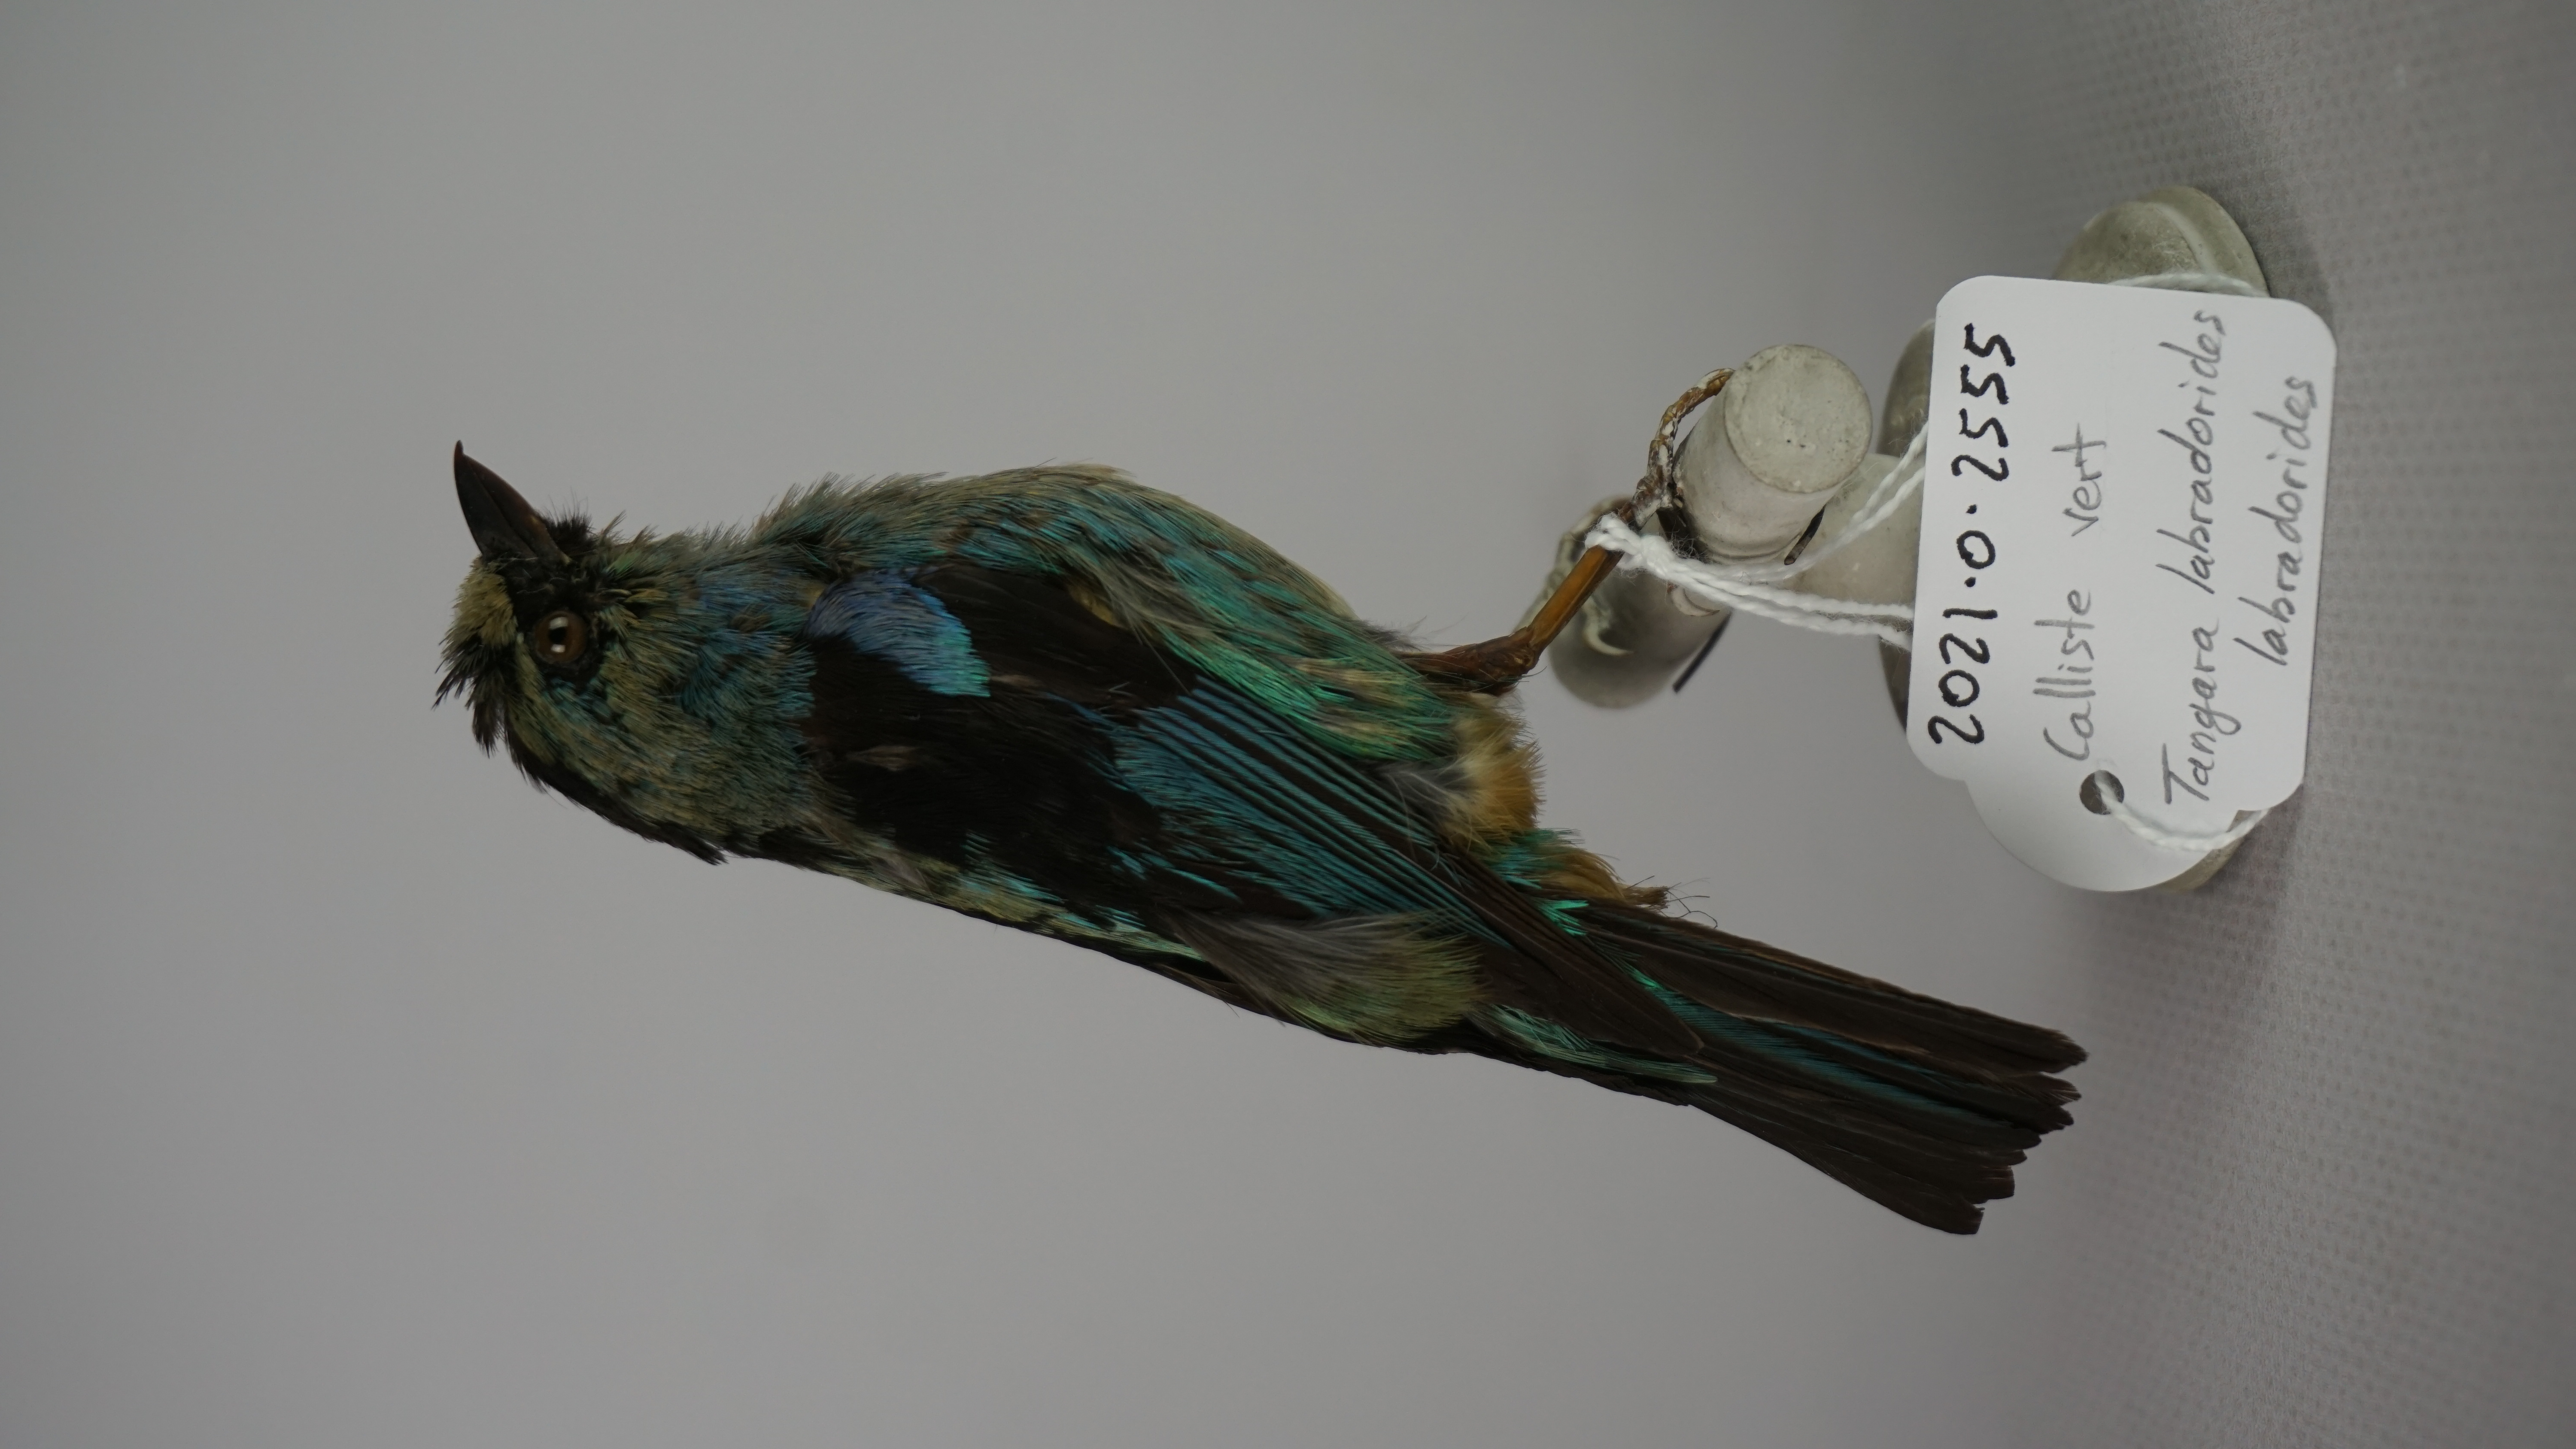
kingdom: Animalia
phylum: Chordata
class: Aves
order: Passeriformes
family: Thraupidae
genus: Tangara
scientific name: Tangara labradorides
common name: Metallic-green tanager
